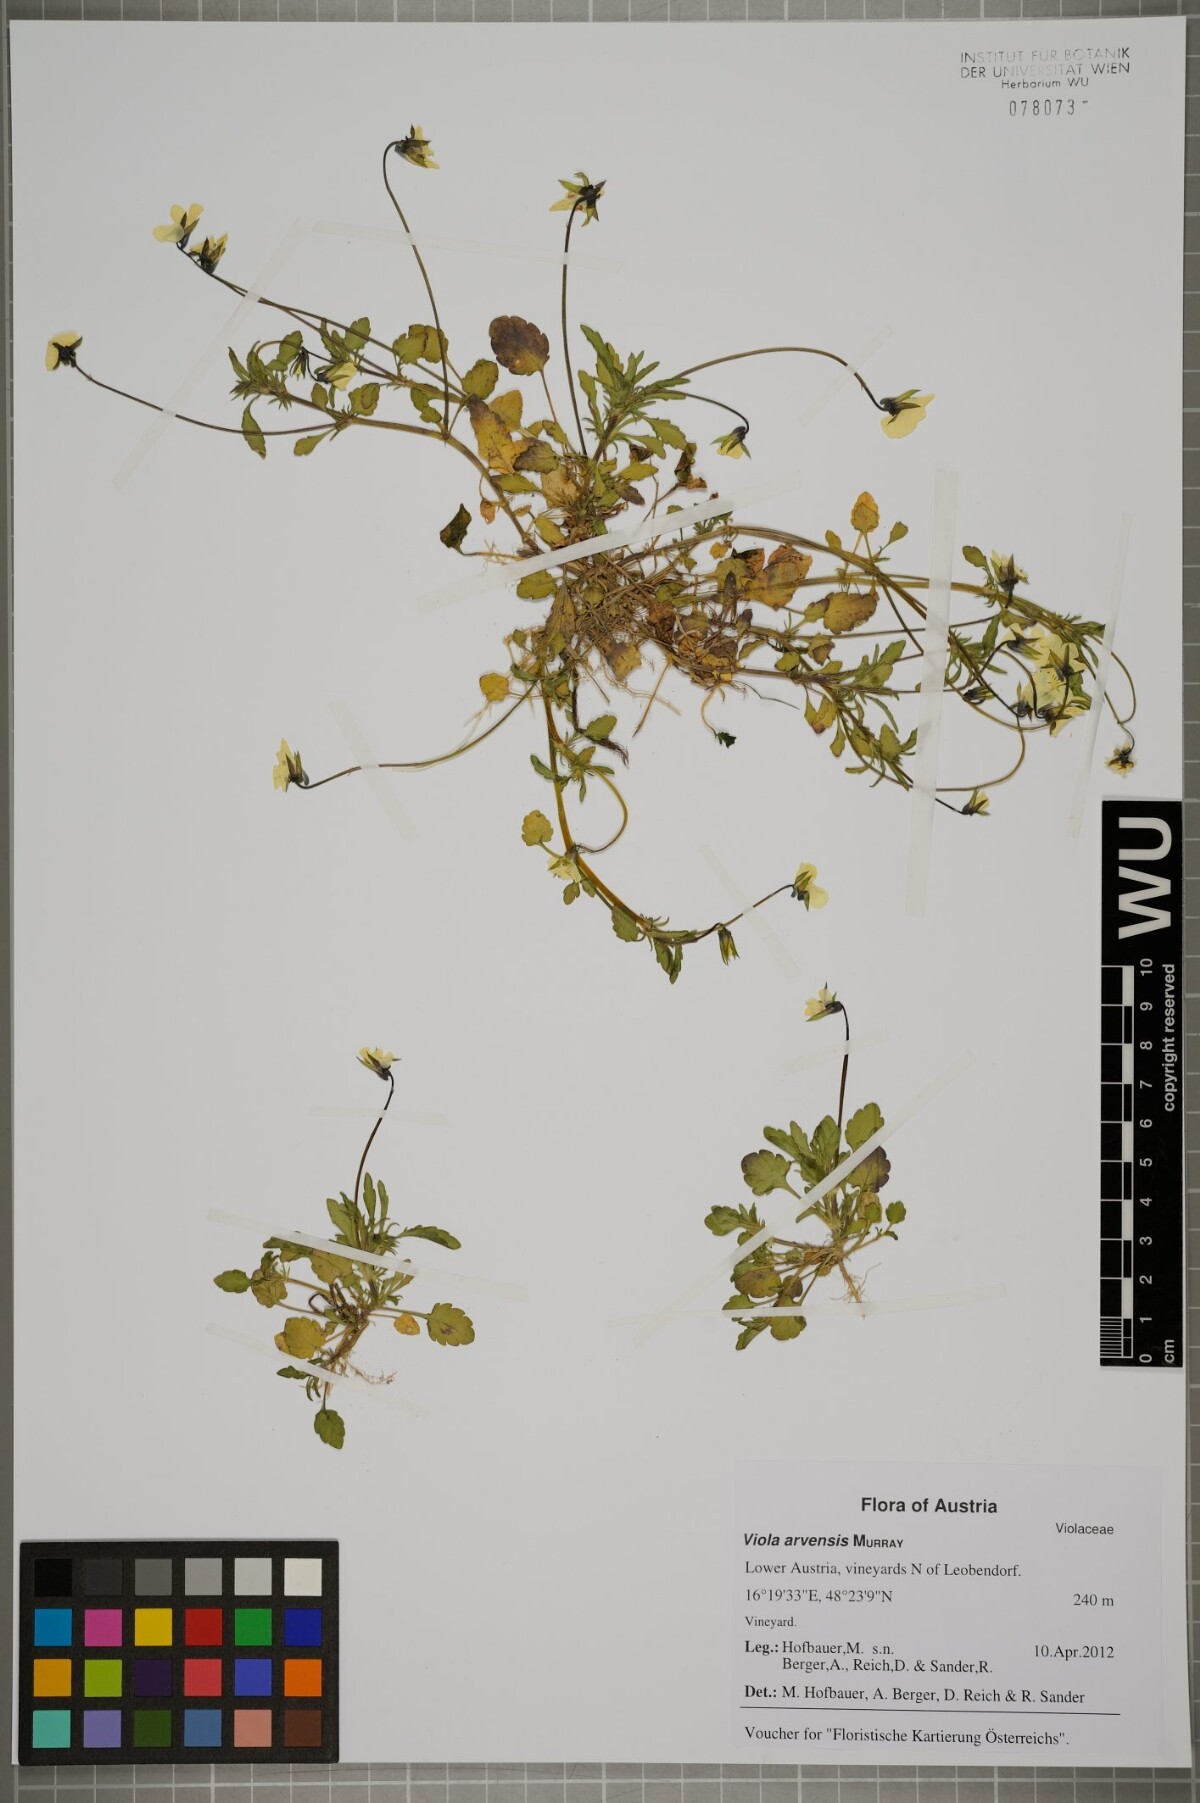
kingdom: Plantae
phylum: Tracheophyta
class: Magnoliopsida
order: Malpighiales
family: Violaceae
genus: Viola
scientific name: Viola arvensis
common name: Field pansy
